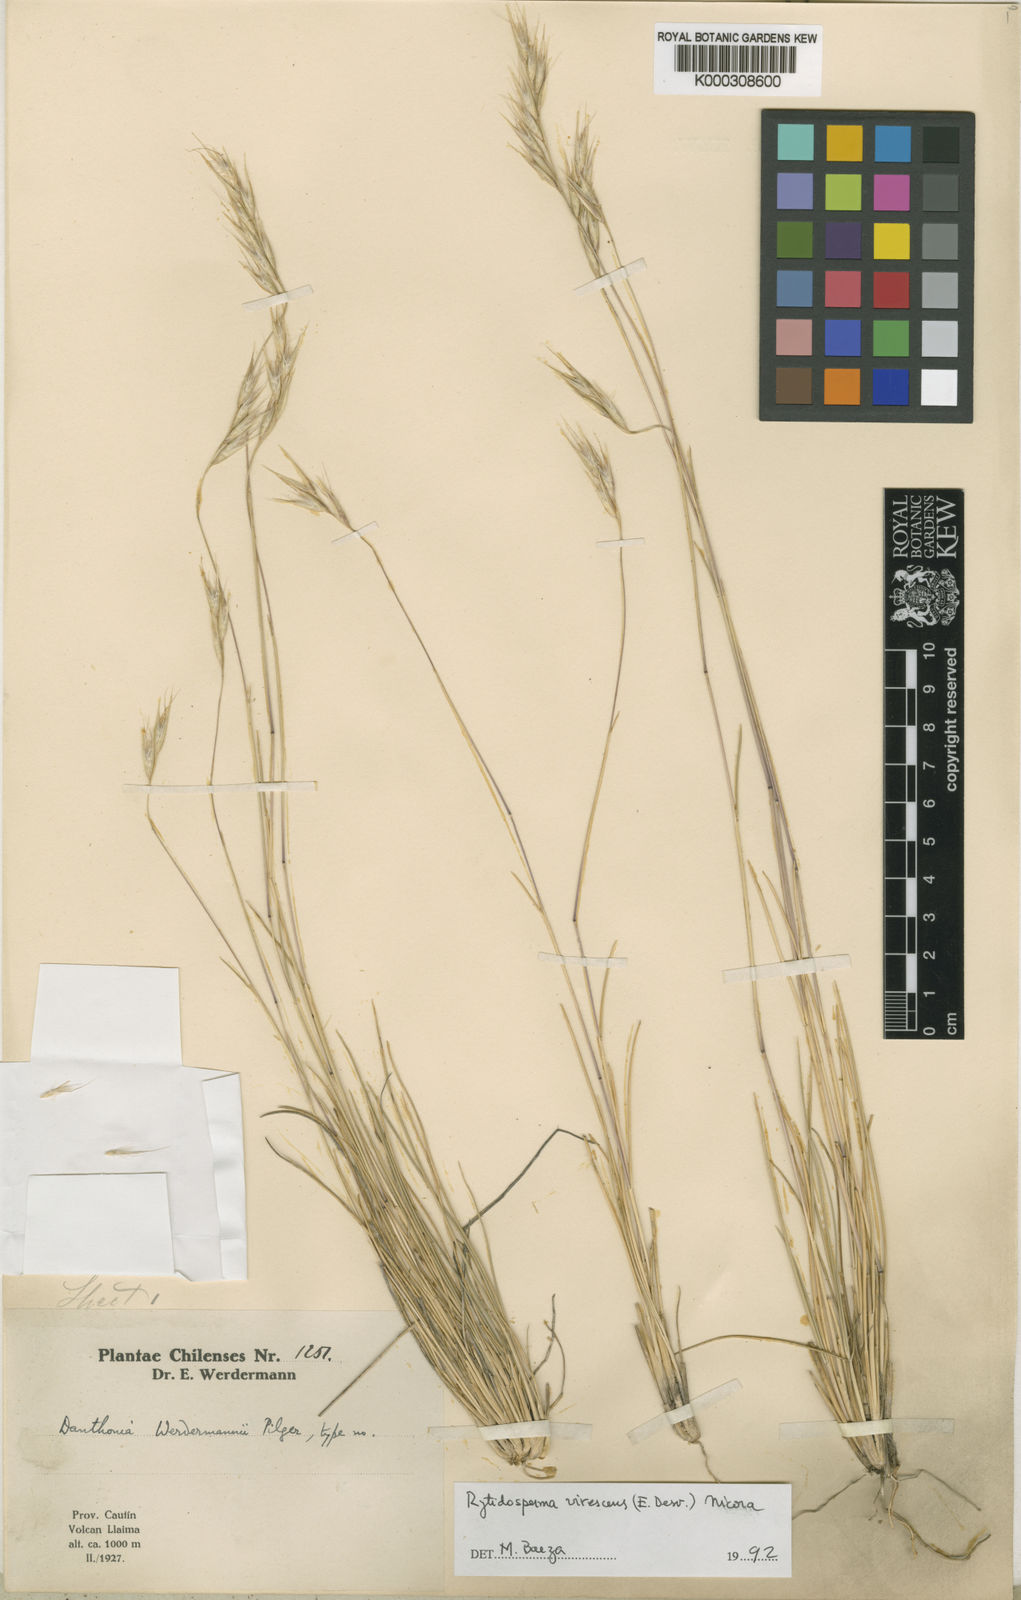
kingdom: Plantae
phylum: Tracheophyta
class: Liliopsida
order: Poales
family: Poaceae
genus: Rytidosperma
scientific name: Rytidosperma virescens
